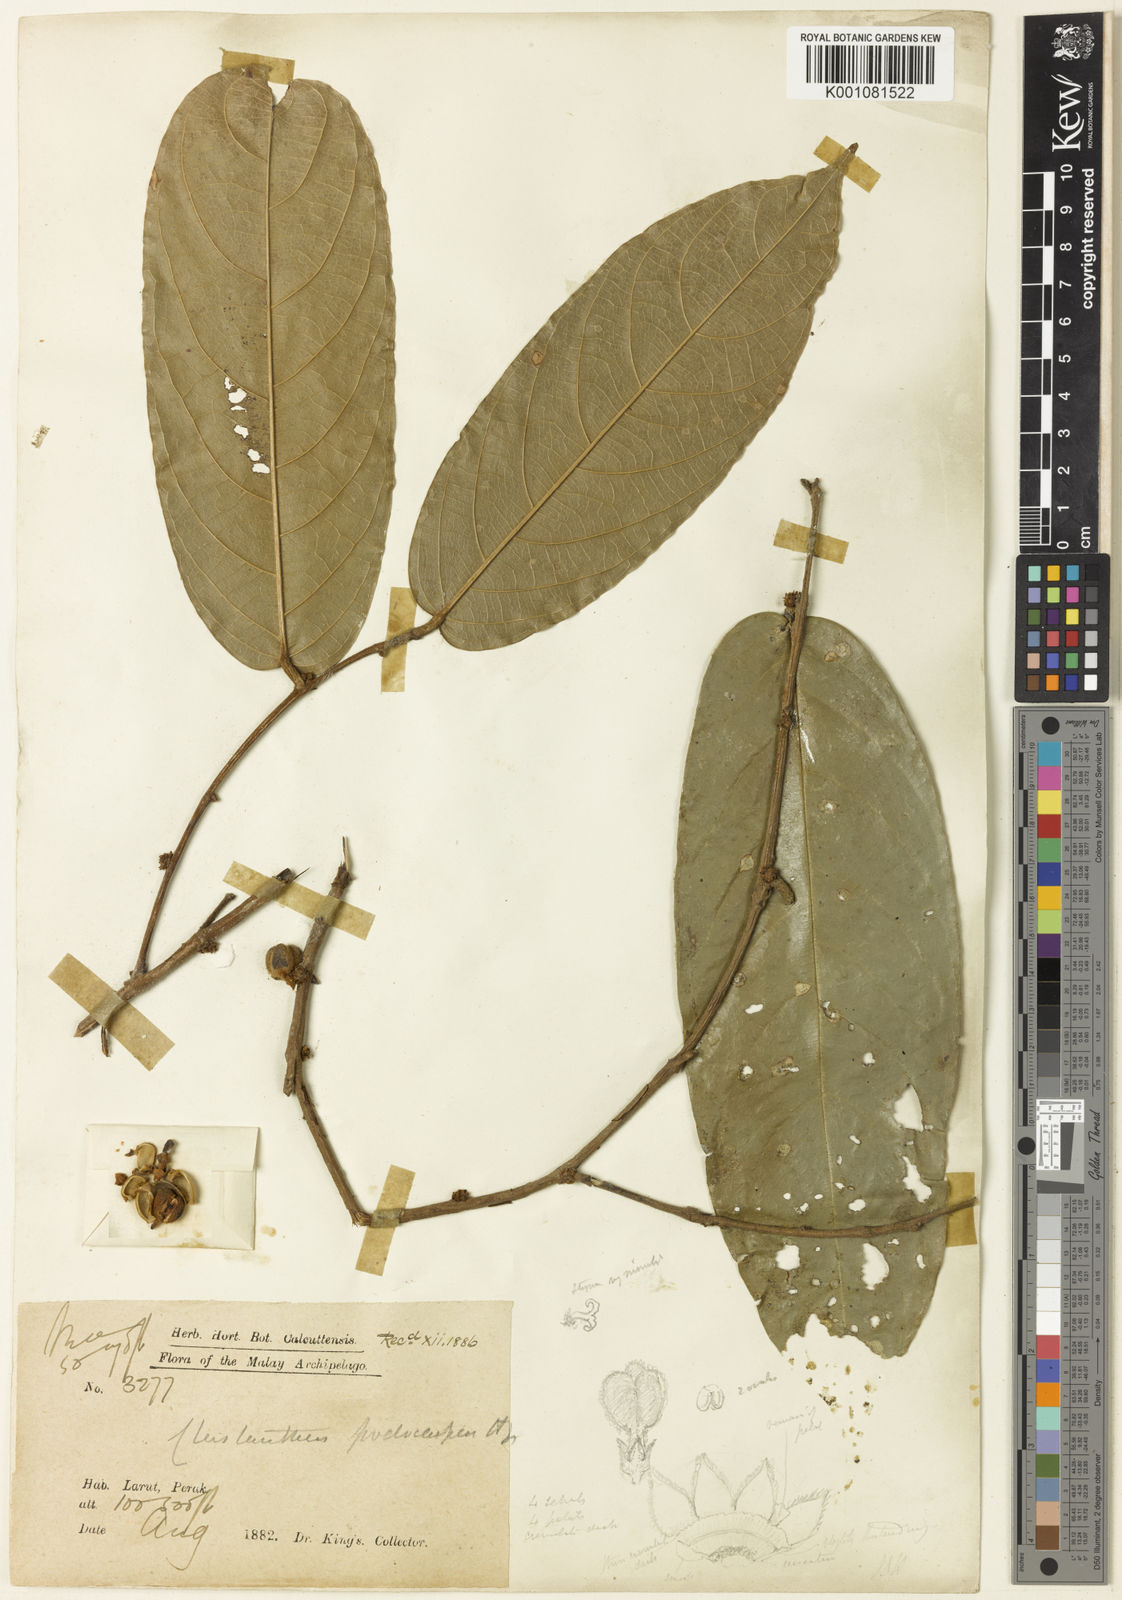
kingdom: Plantae
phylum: Tracheophyta
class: Magnoliopsida
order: Malpighiales
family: Phyllanthaceae
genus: Cleistanthus
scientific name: Cleistanthus podocarpus
